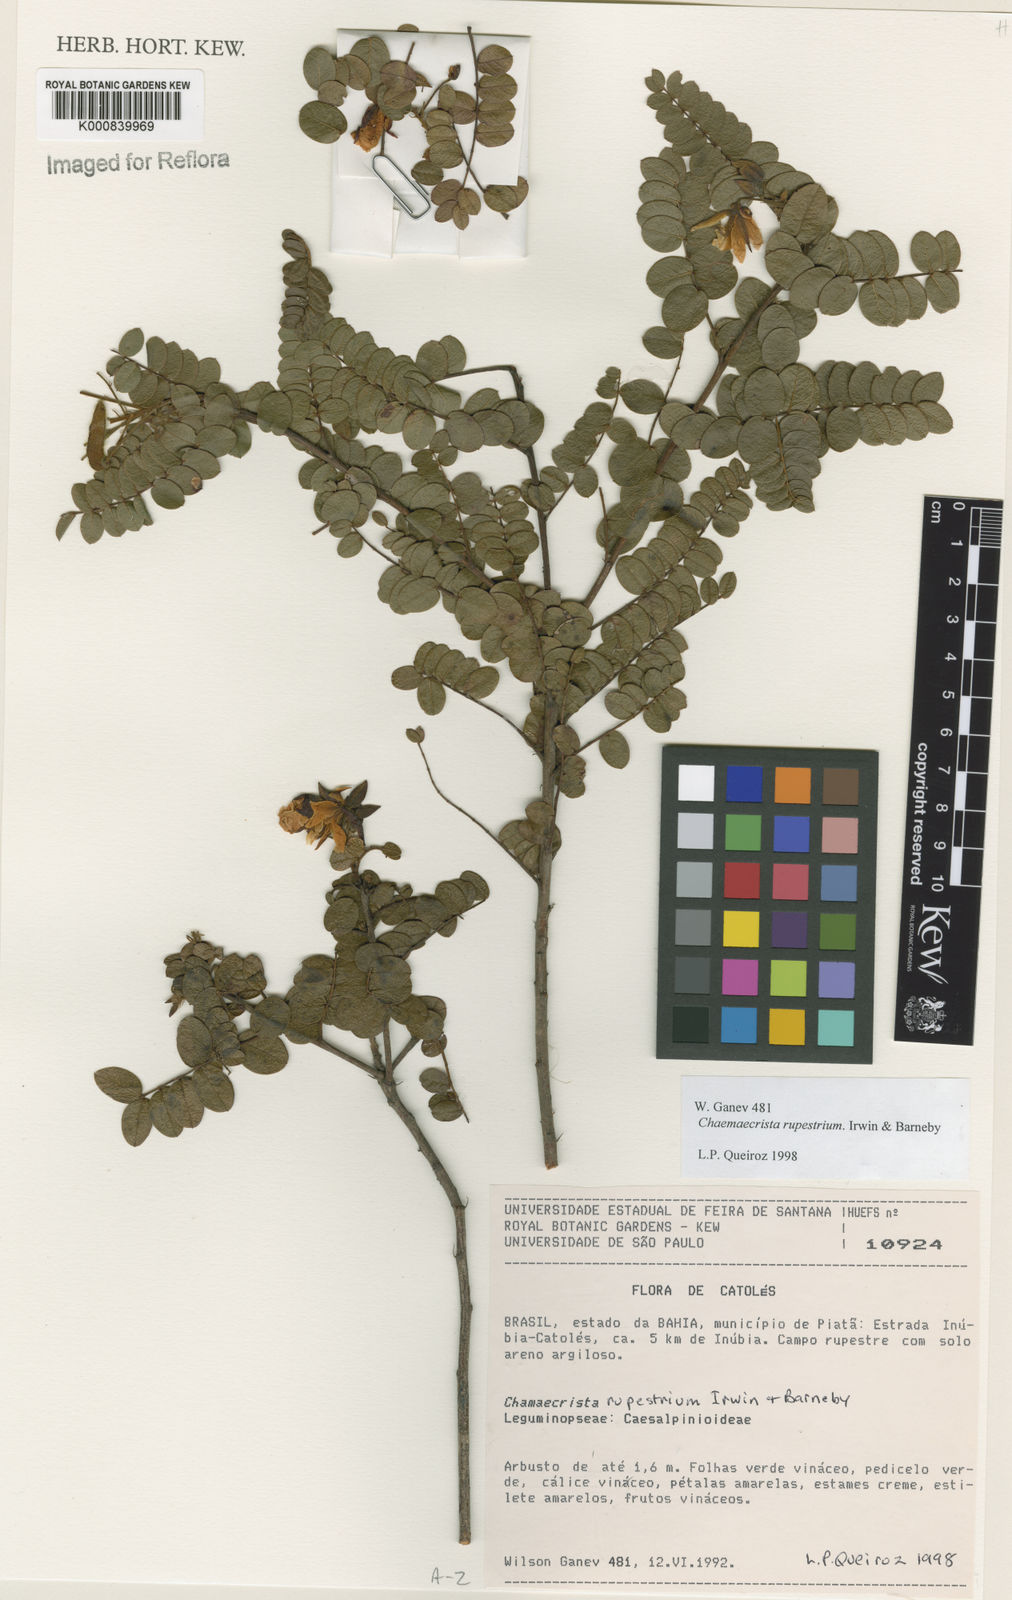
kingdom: Plantae
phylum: Tracheophyta
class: Magnoliopsida
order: Fabales
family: Fabaceae
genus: Chamaecrista
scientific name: Chamaecrista rupestrium
